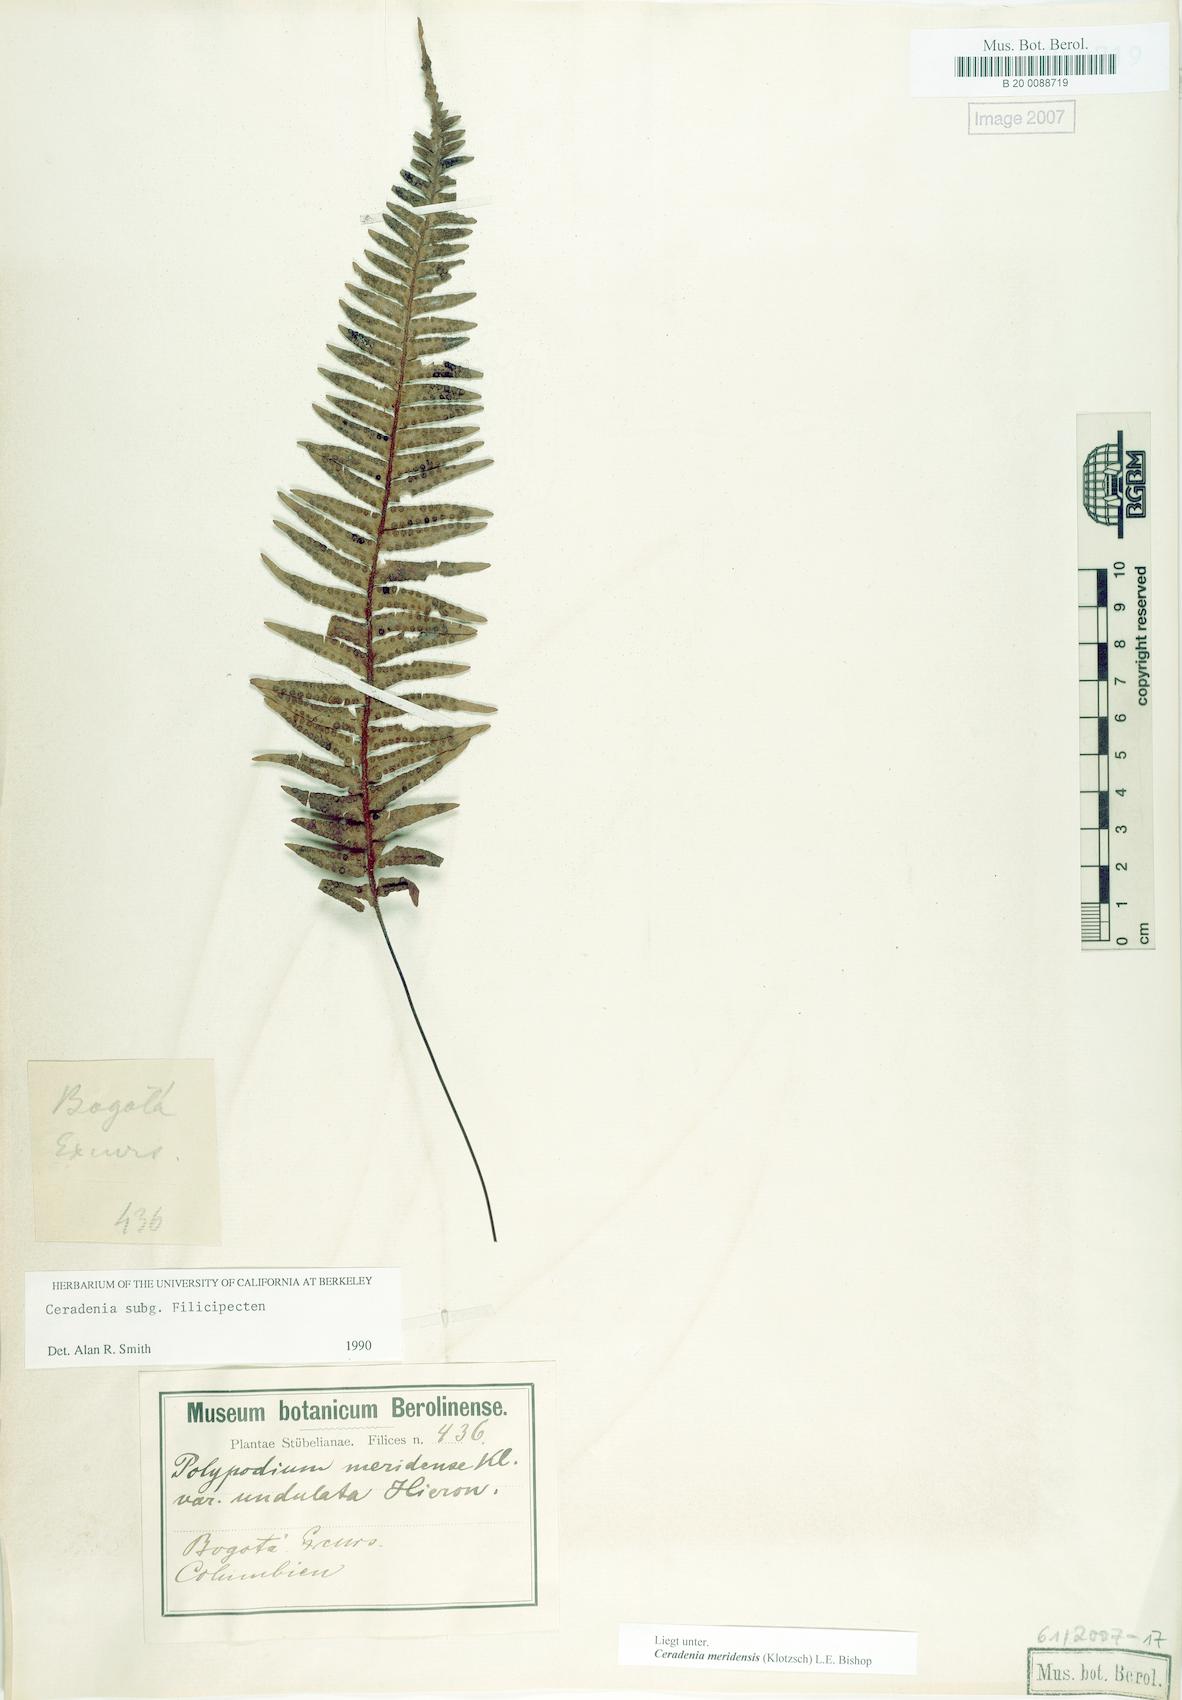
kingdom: Plantae
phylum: Tracheophyta
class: Polypodiopsida
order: Polypodiales
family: Polypodiaceae
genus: Ceradenia
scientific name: Ceradenia
